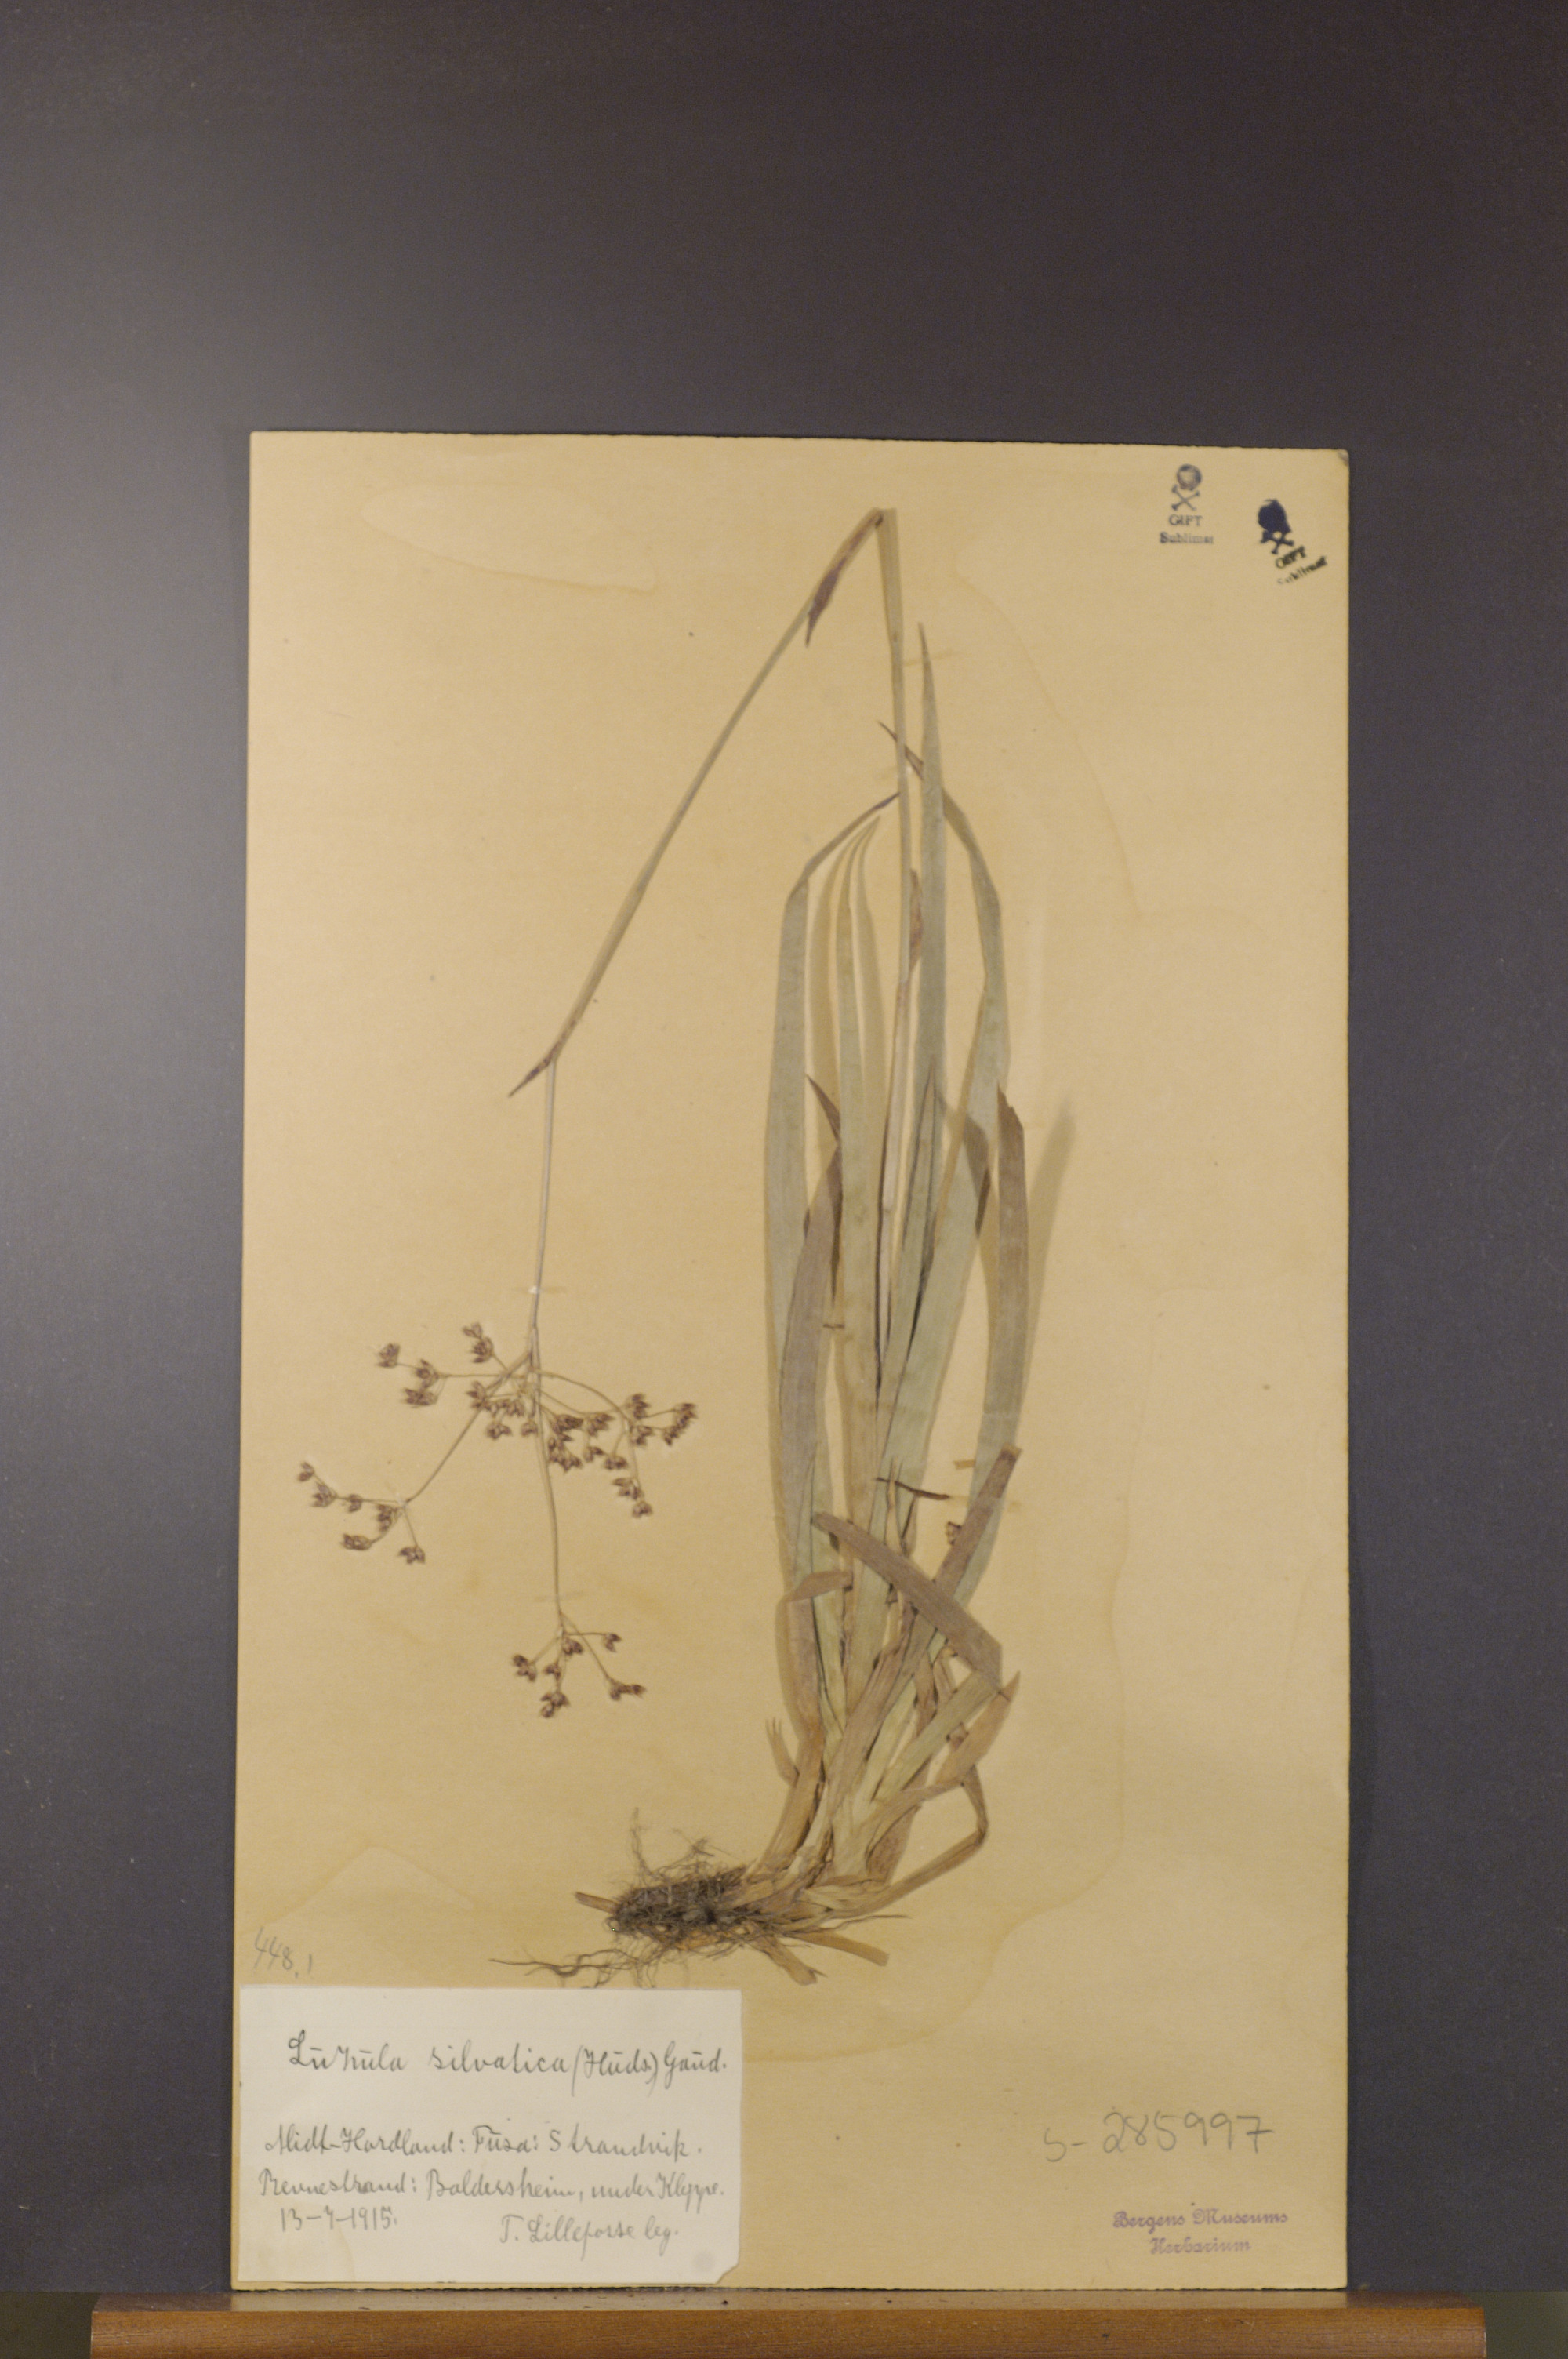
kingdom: Plantae
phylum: Tracheophyta
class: Liliopsida
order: Poales
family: Juncaceae
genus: Luzula
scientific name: Luzula sylvatica
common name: Great wood-rush
